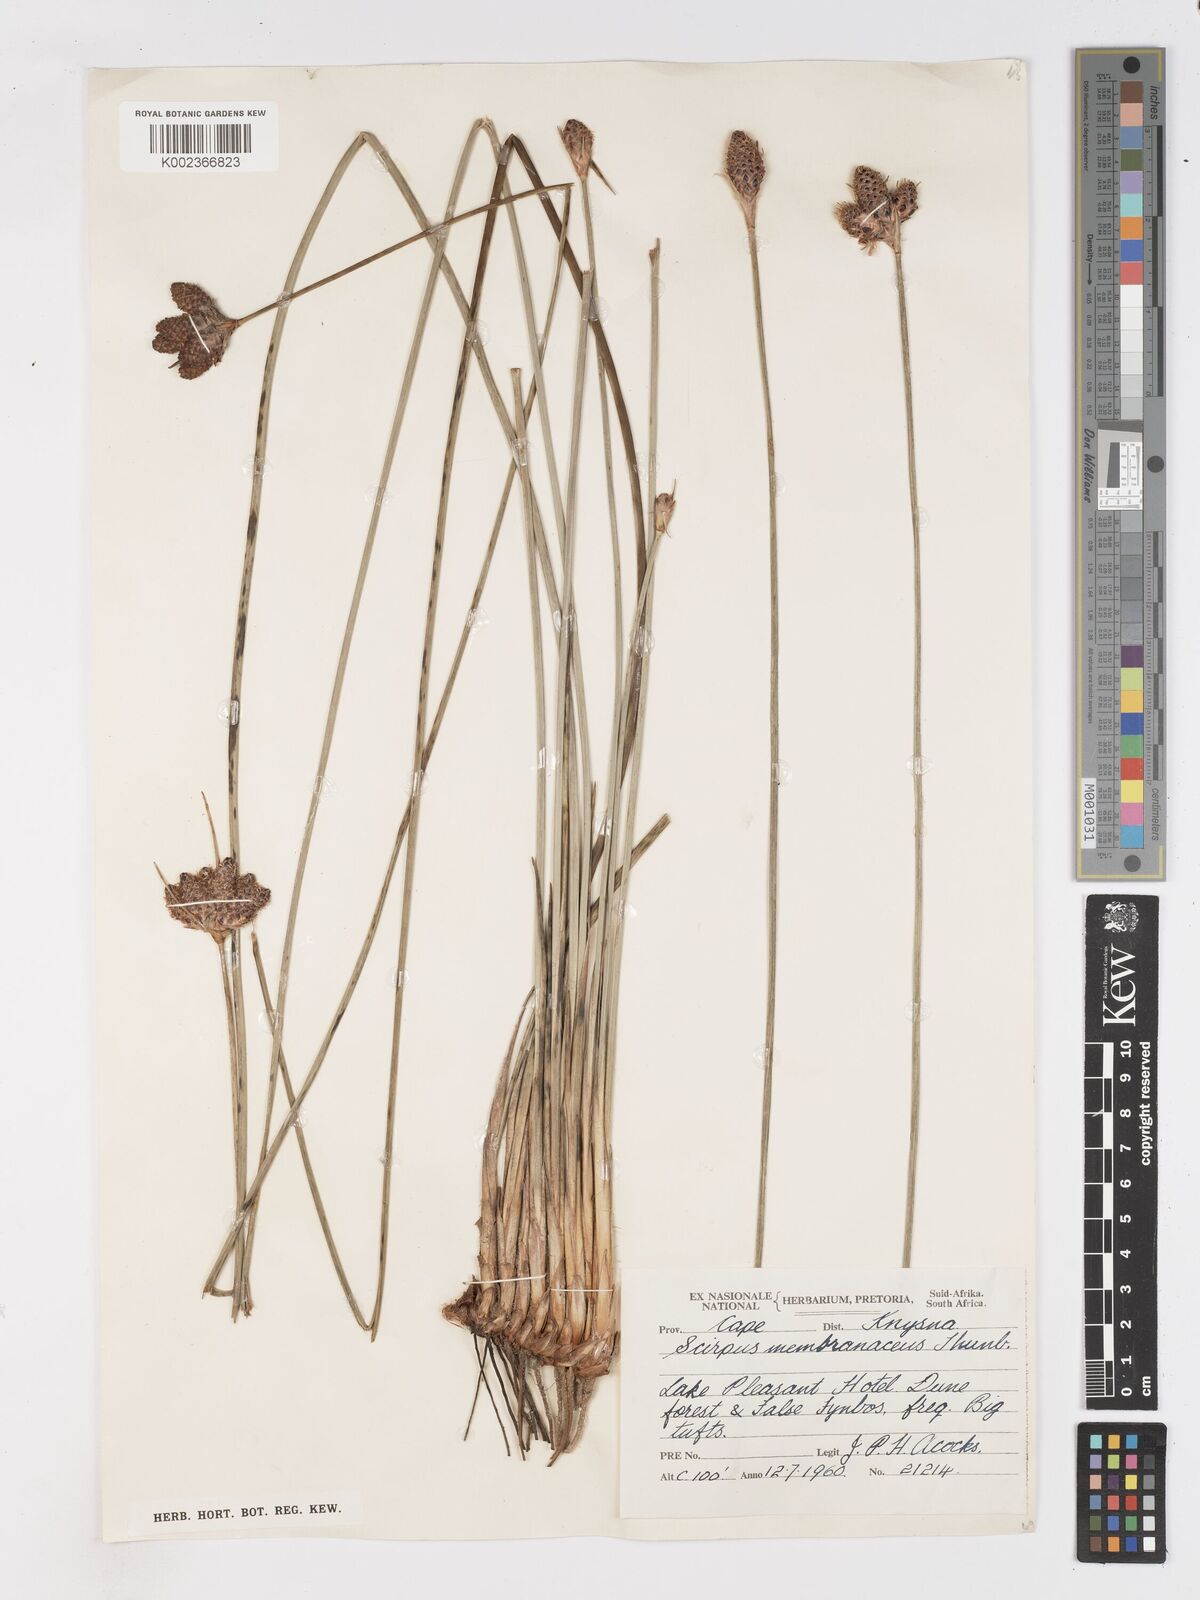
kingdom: Plantae
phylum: Tracheophyta
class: Liliopsida
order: Poales
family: Cyperaceae
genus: Hellmuthia
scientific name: Hellmuthia membranacea
